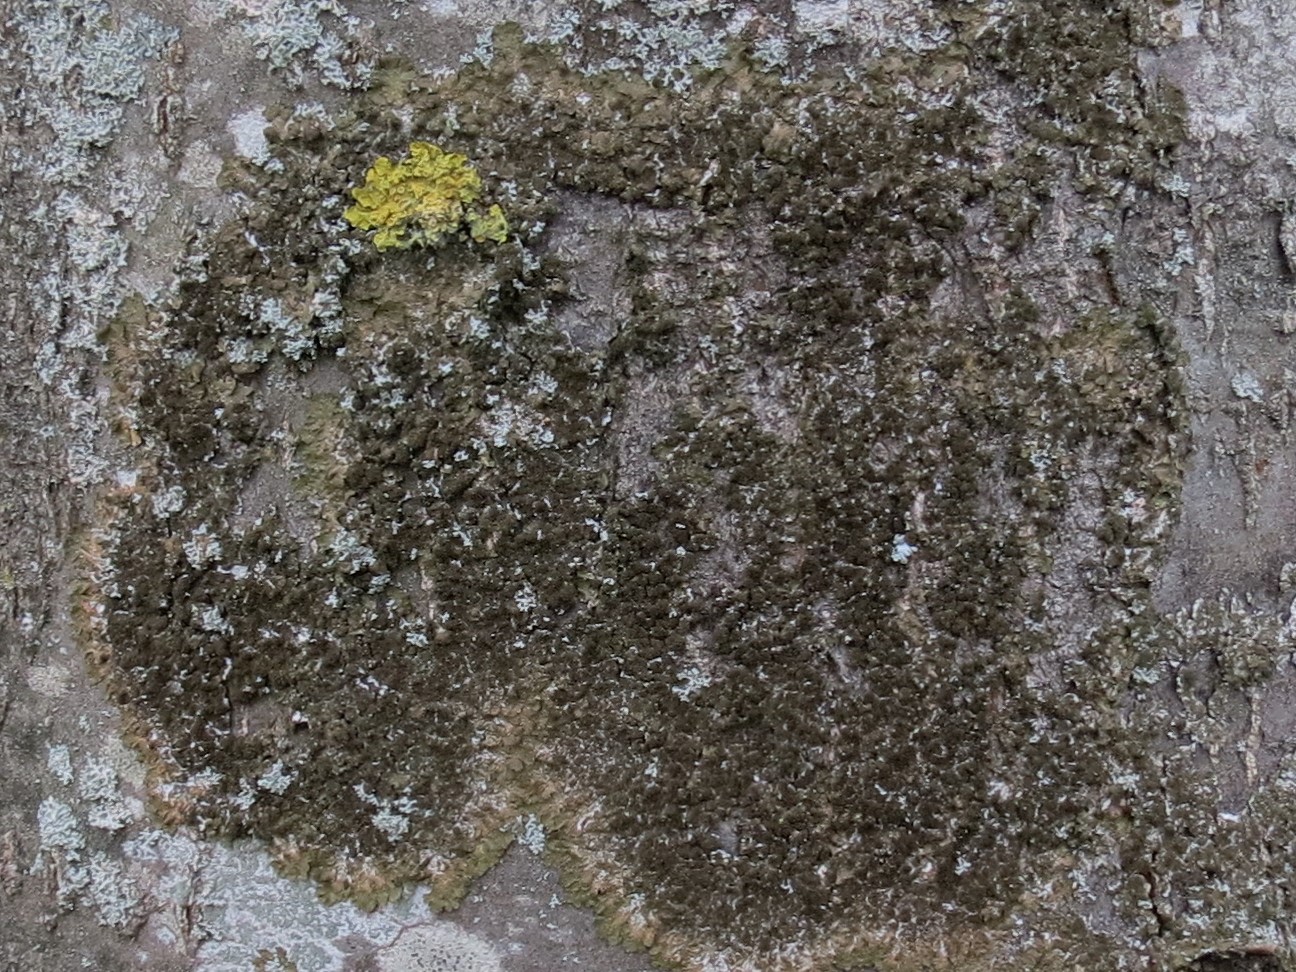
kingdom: Fungi
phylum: Ascomycota
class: Lecanoromycetes
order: Lecanorales
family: Parmeliaceae
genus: Melanelixia
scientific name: Melanelixia subaurifera
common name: guldpudret skållav
